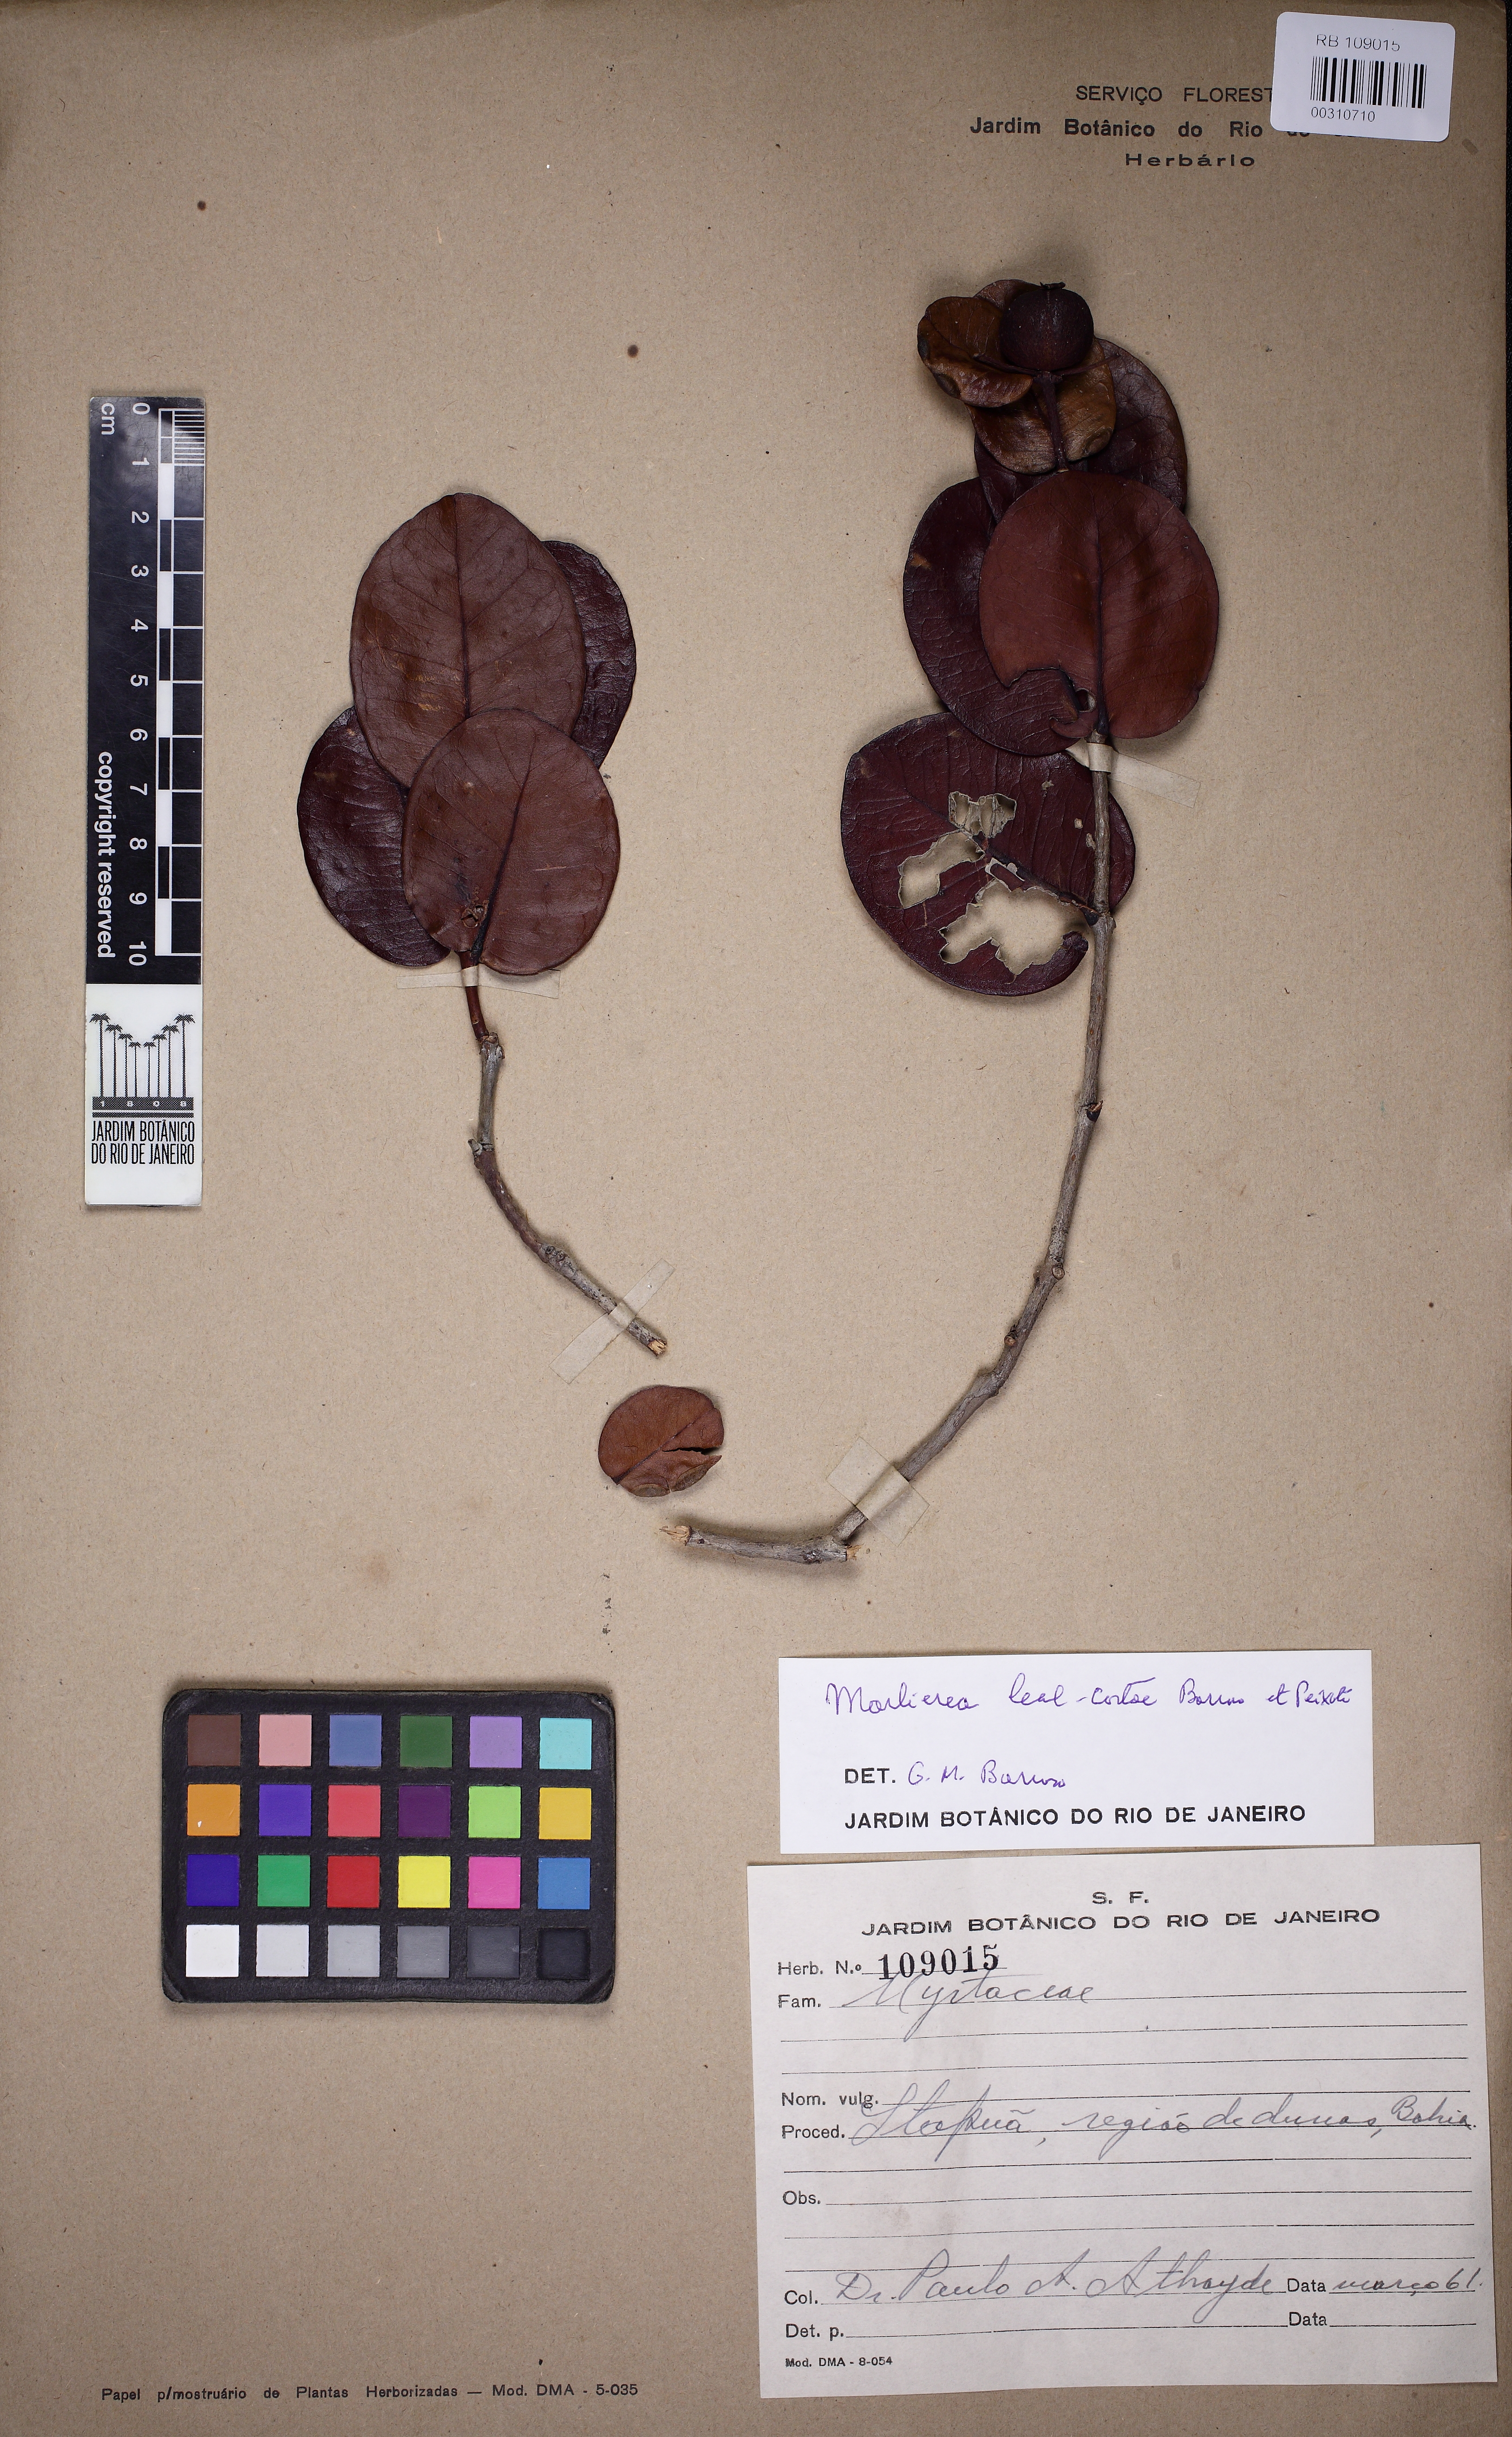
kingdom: Plantae
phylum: Tracheophyta
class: Magnoliopsida
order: Myrtales
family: Myrtaceae
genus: Psidium
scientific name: Psidium amplexicaule
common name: Mountain guava
